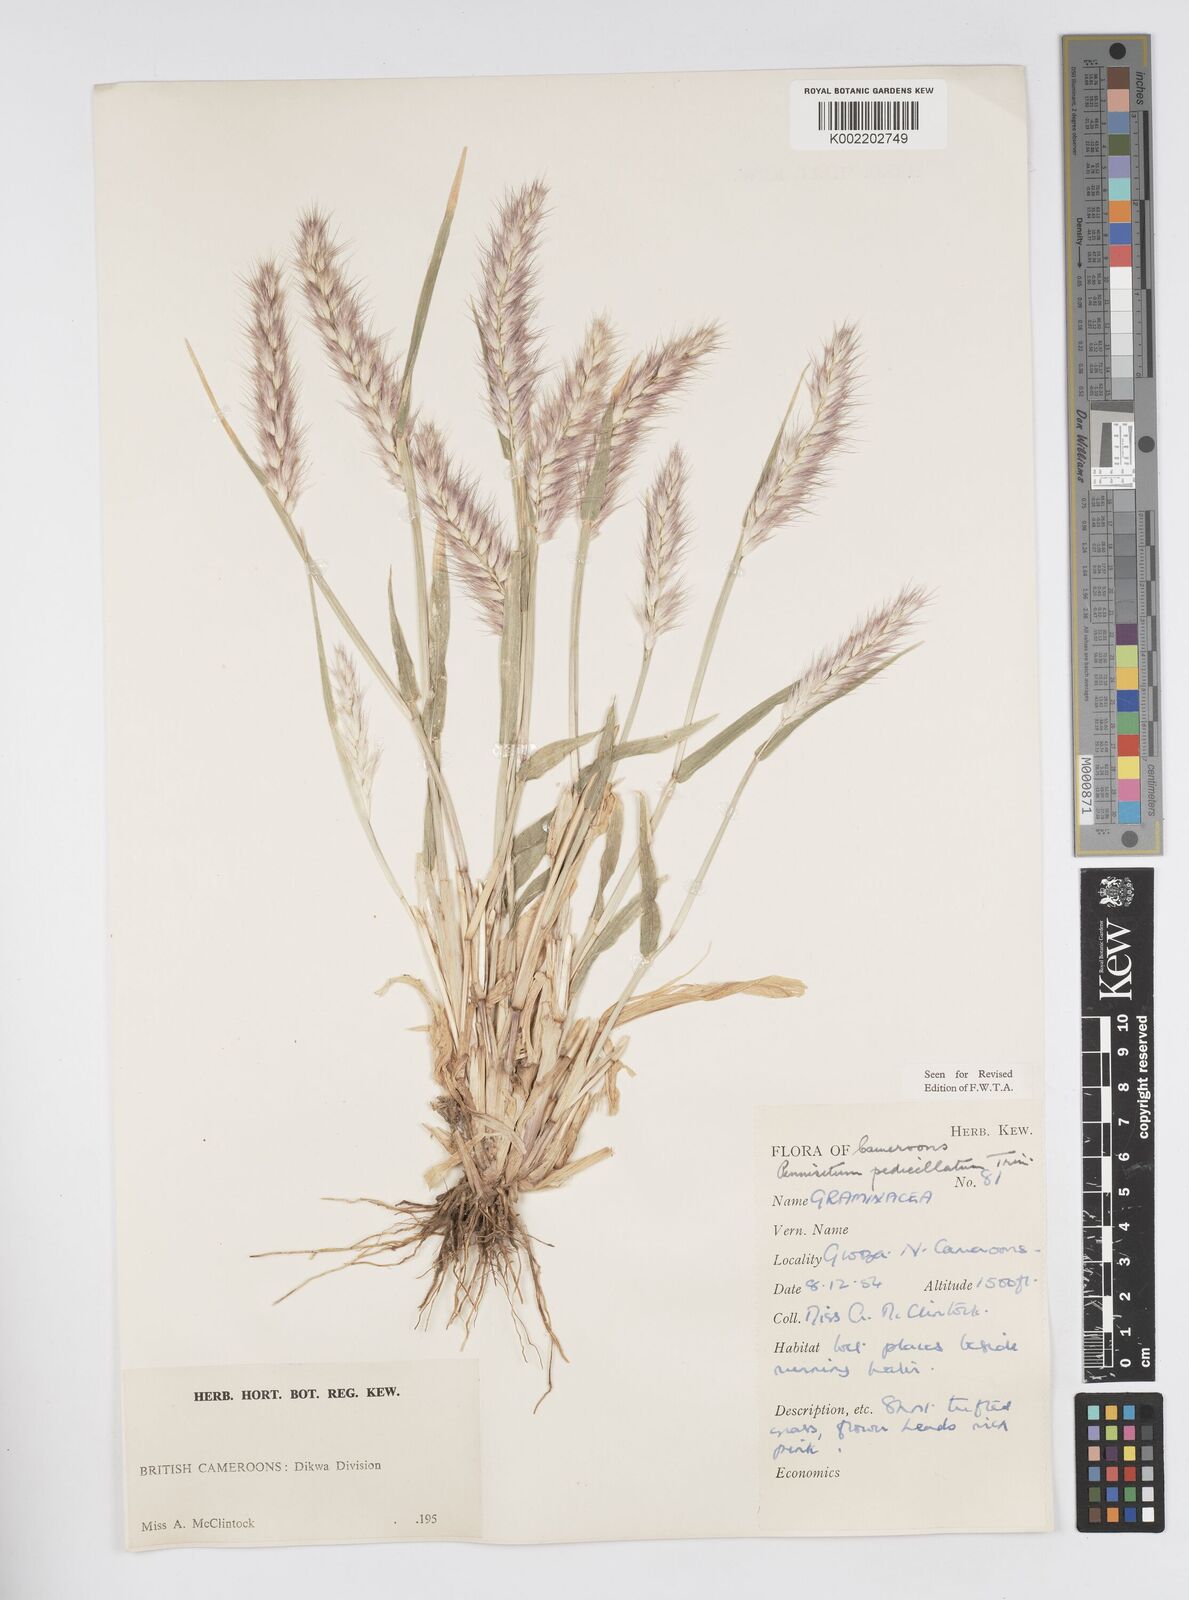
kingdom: Plantae
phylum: Tracheophyta
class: Liliopsida
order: Poales
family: Poaceae
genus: Cenchrus
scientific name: Cenchrus pedicellatus
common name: Hairy fountain grass
